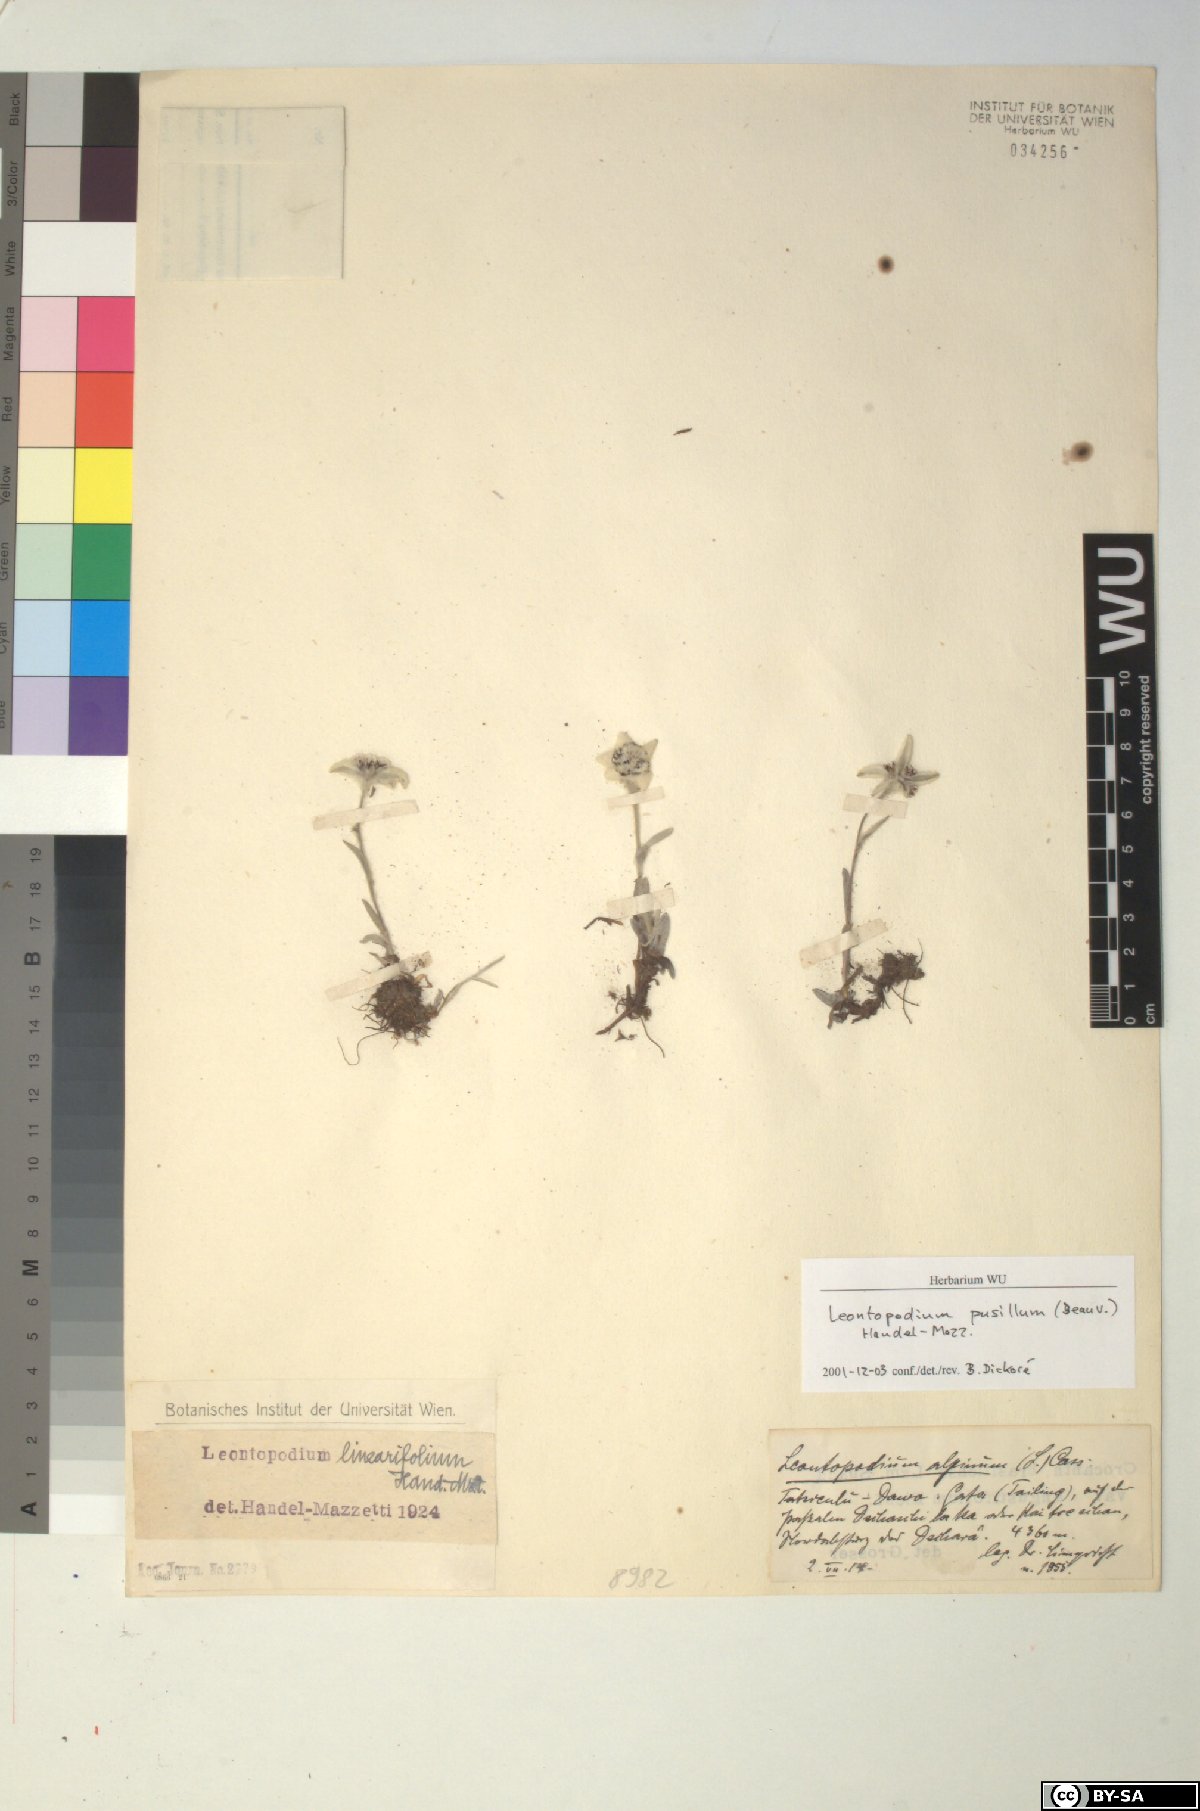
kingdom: Plantae
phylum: Tracheophyta
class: Magnoliopsida
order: Asterales
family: Asteraceae
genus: Leontopodium
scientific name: Leontopodium pusillum
